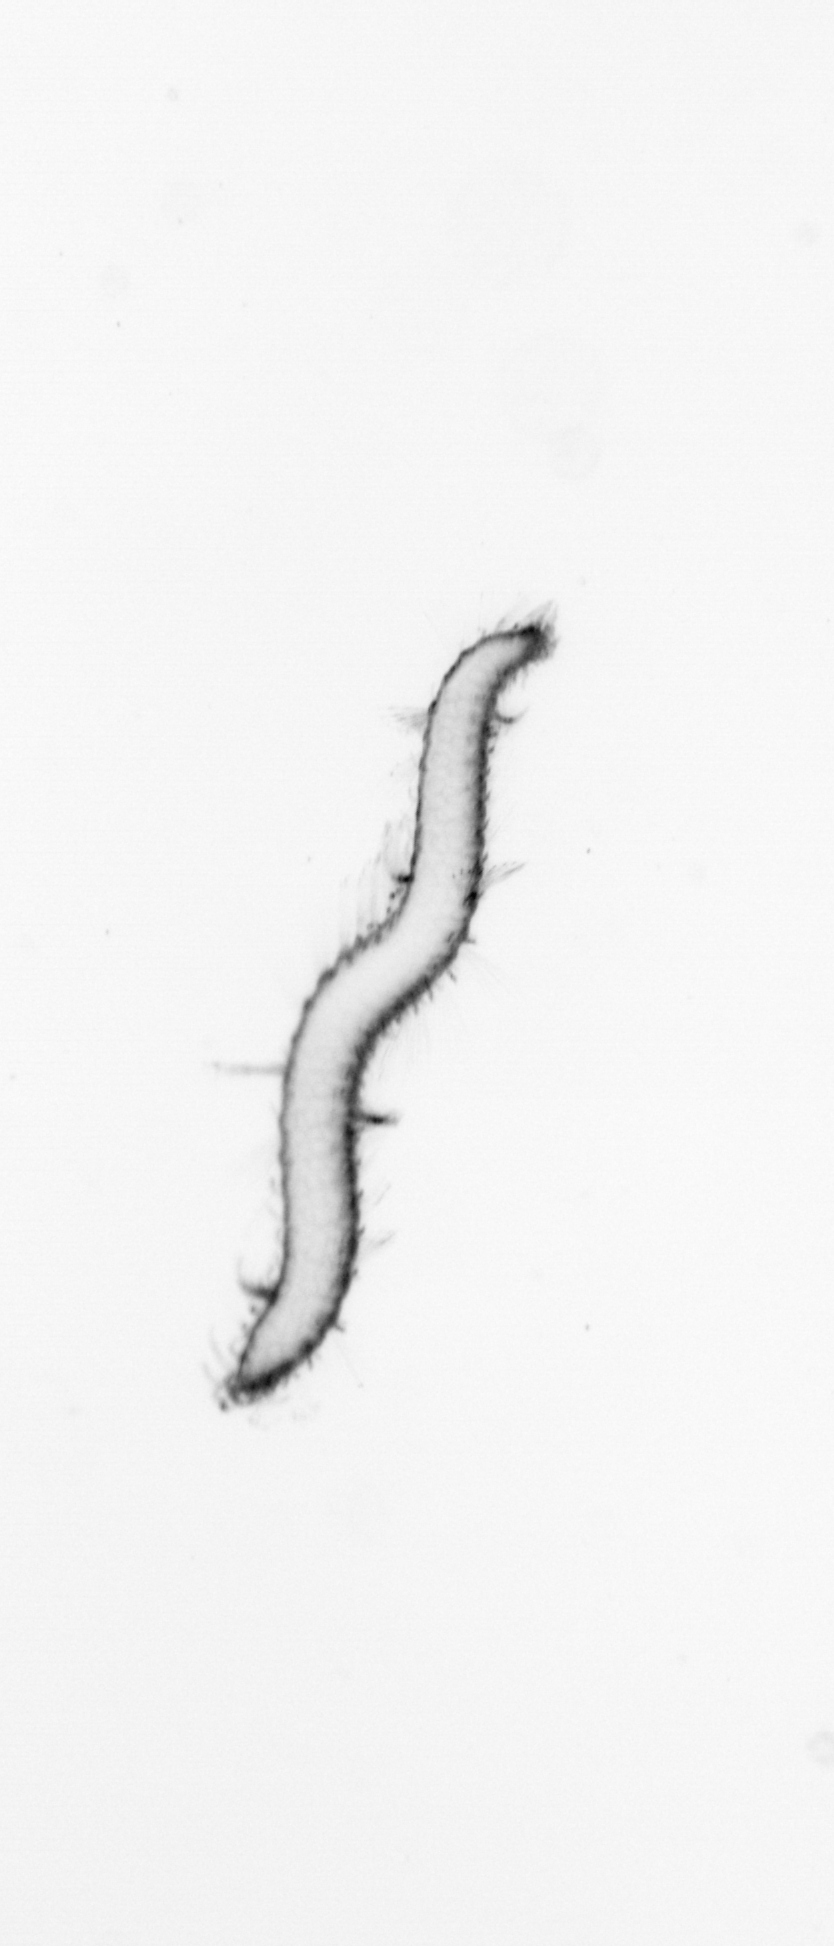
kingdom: Animalia
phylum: Annelida
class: Polychaeta
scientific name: Polychaeta
